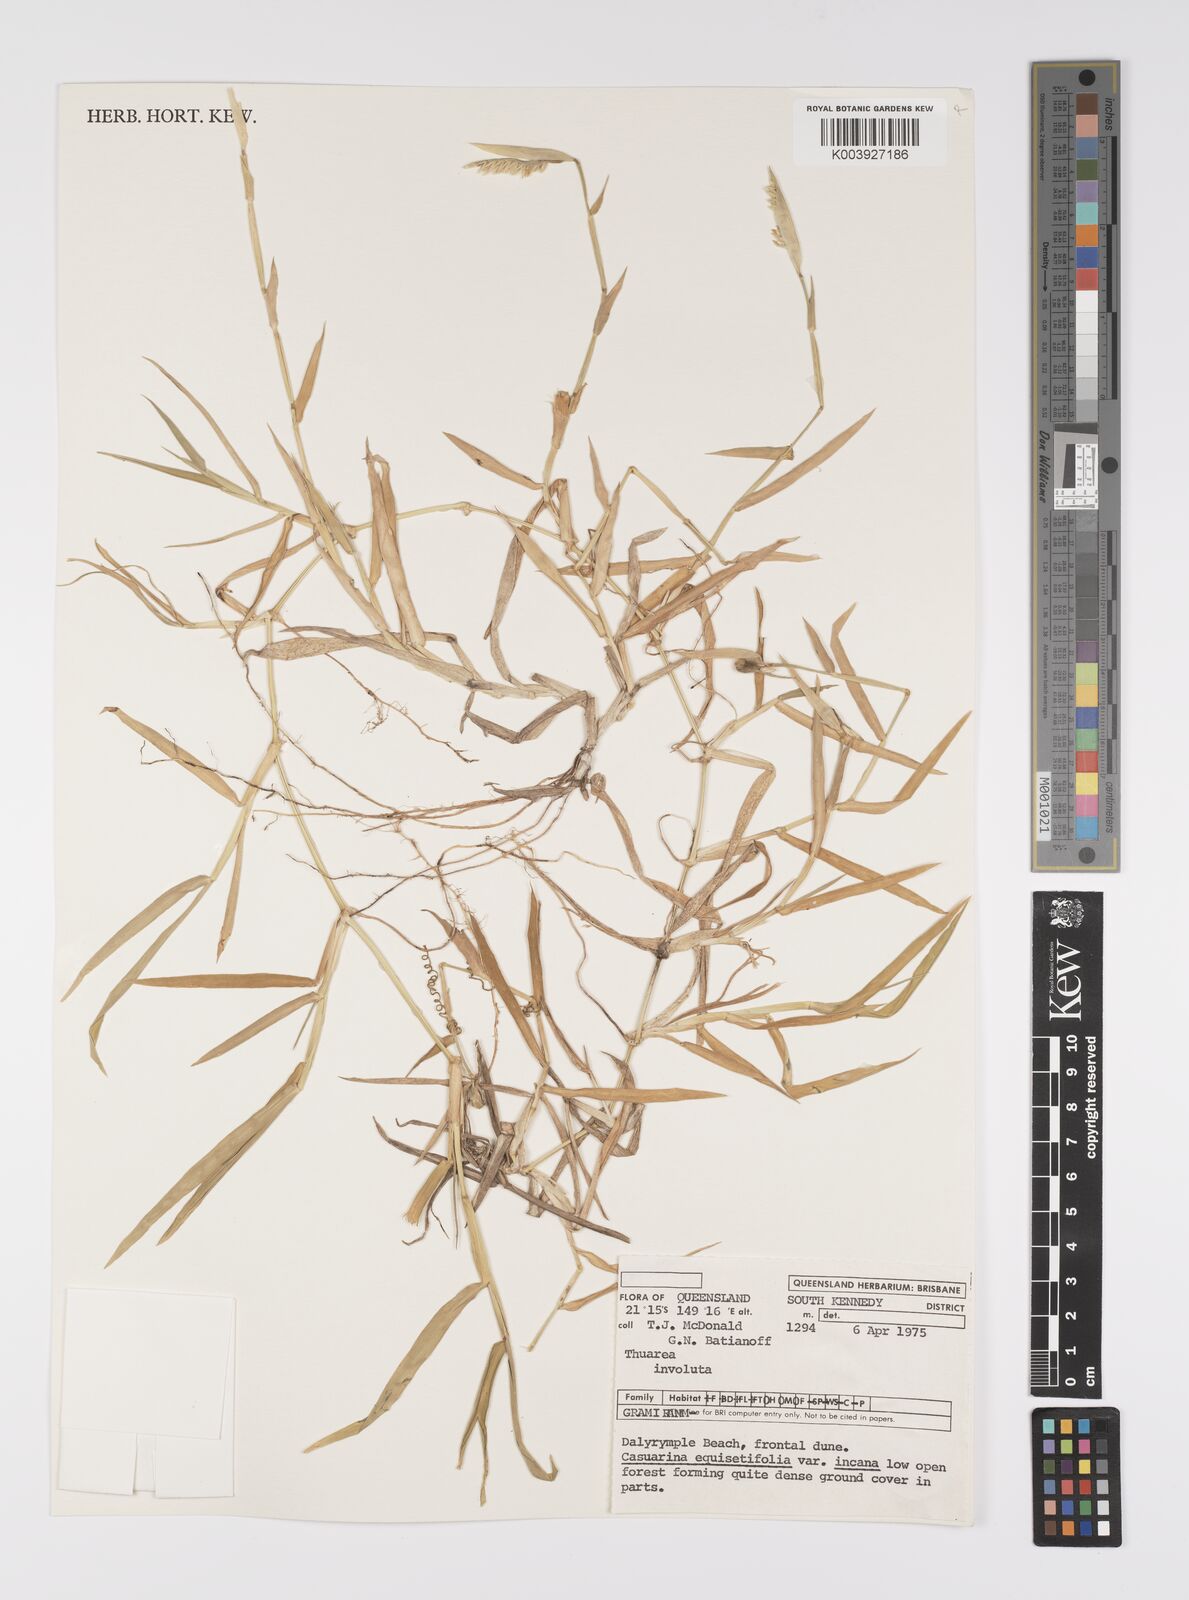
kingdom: Plantae
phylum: Tracheophyta
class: Liliopsida
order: Poales
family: Poaceae
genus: Thuarea
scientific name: Thuarea involuta
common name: Tropical beach grass
